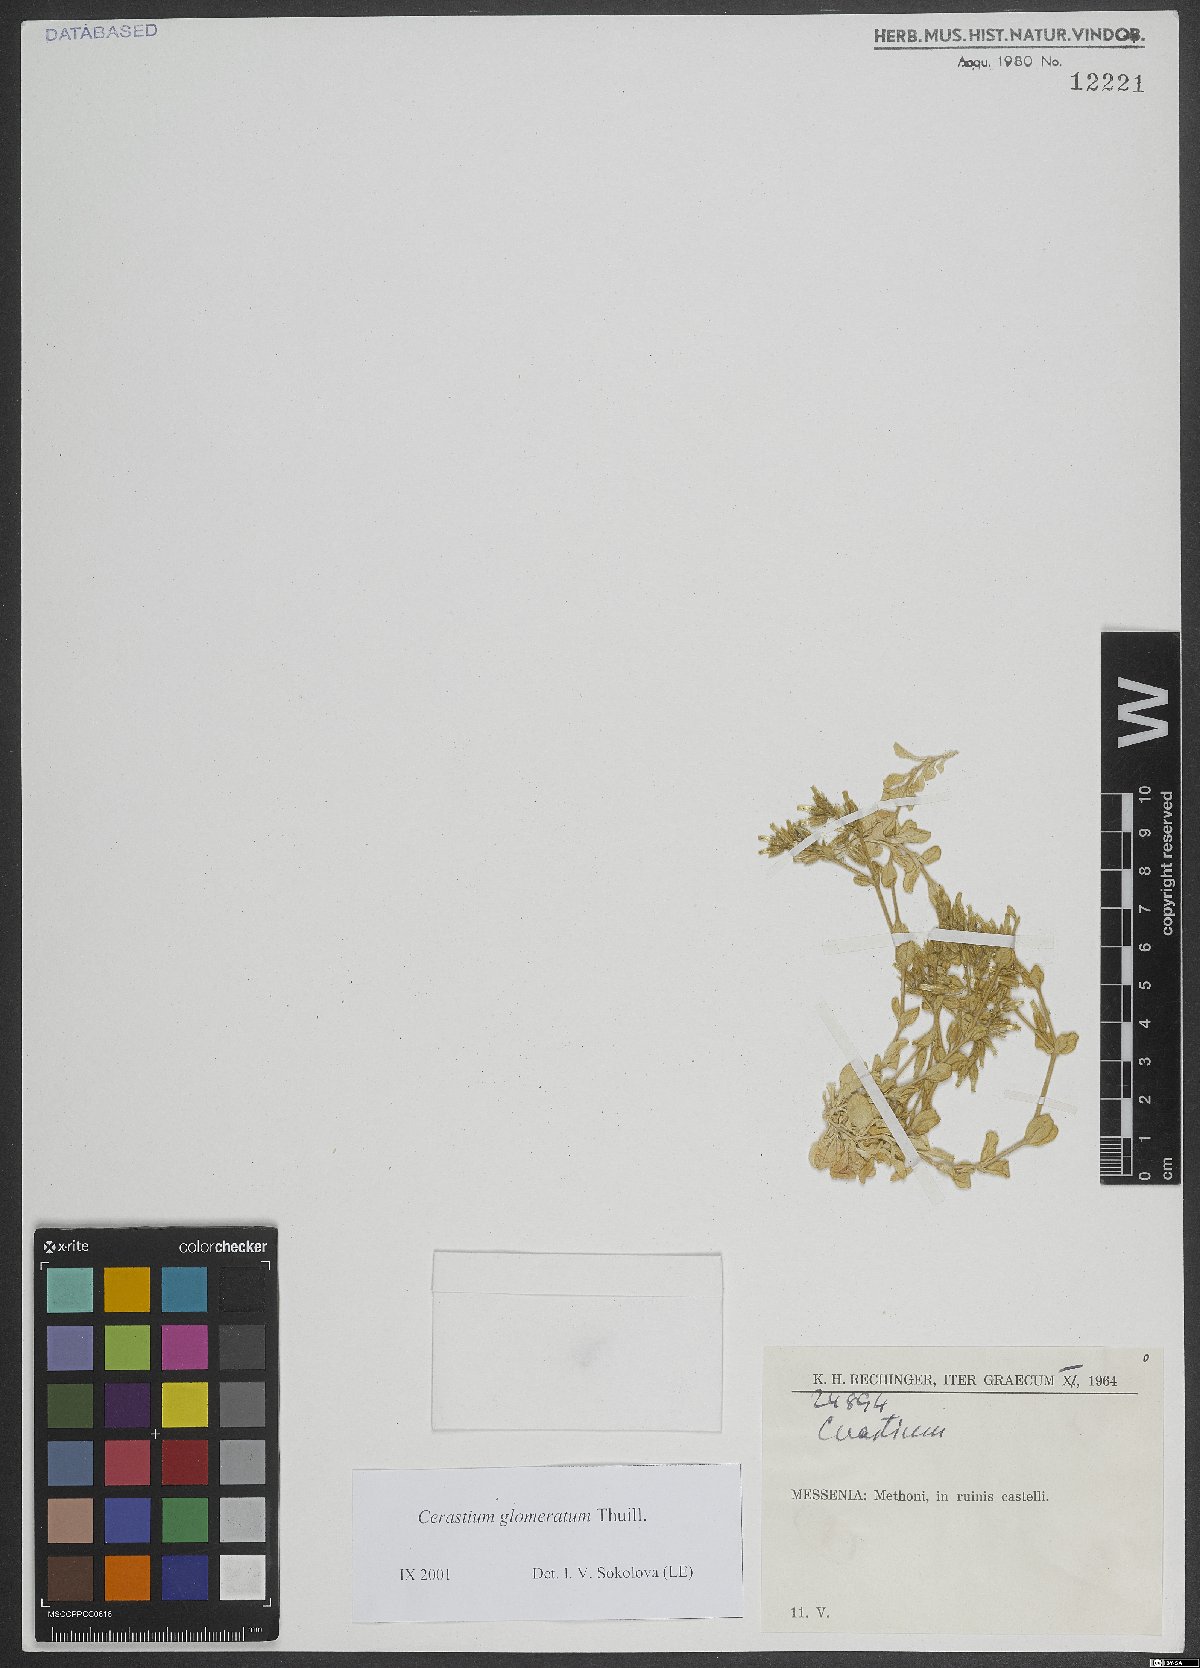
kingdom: Plantae
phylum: Tracheophyta
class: Magnoliopsida
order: Caryophyllales
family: Caryophyllaceae
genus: Cerastium
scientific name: Cerastium glomeratum
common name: Sticky chickweed
